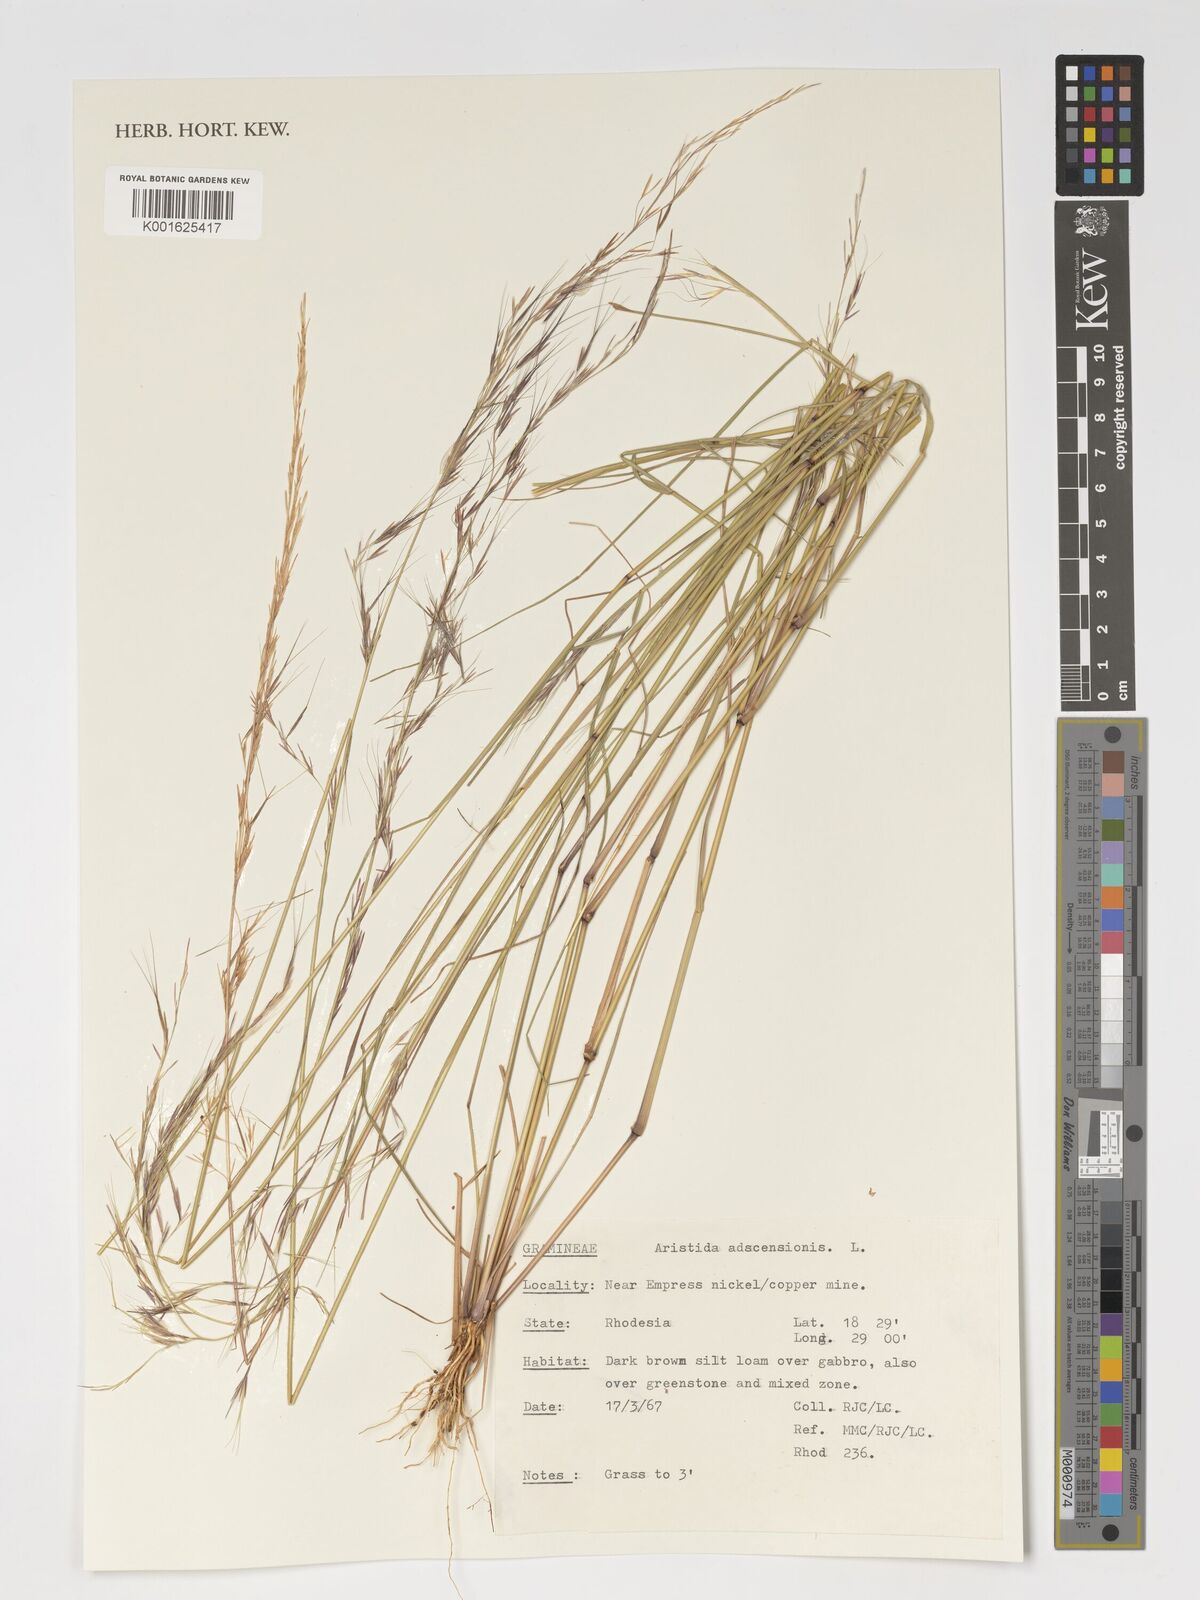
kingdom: Plantae
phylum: Tracheophyta
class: Liliopsida
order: Poales
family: Poaceae
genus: Aristida
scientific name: Aristida adscensionis
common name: Sixweeks threeawn
